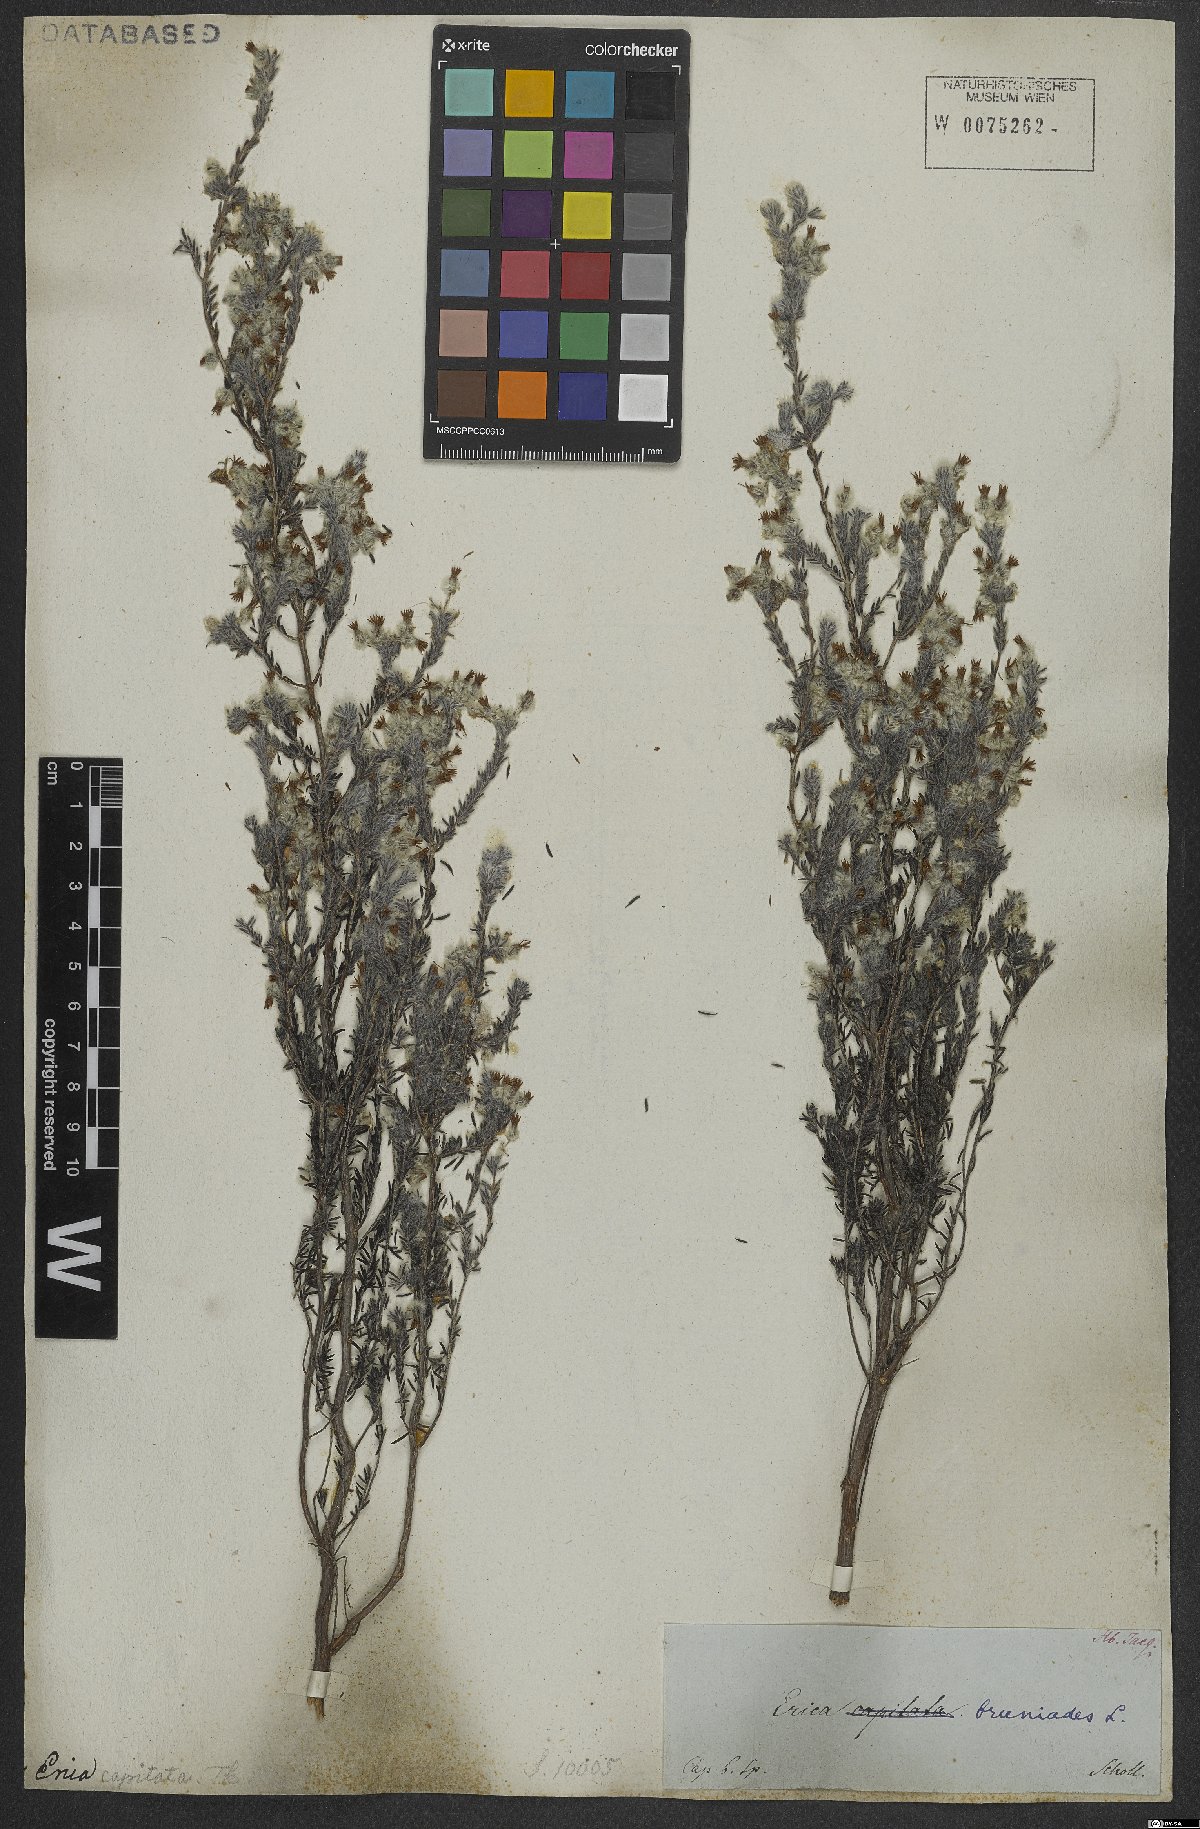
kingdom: Plantae
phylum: Tracheophyta
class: Magnoliopsida
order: Ericales
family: Ericaceae
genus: Erica
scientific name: Erica bruniades
